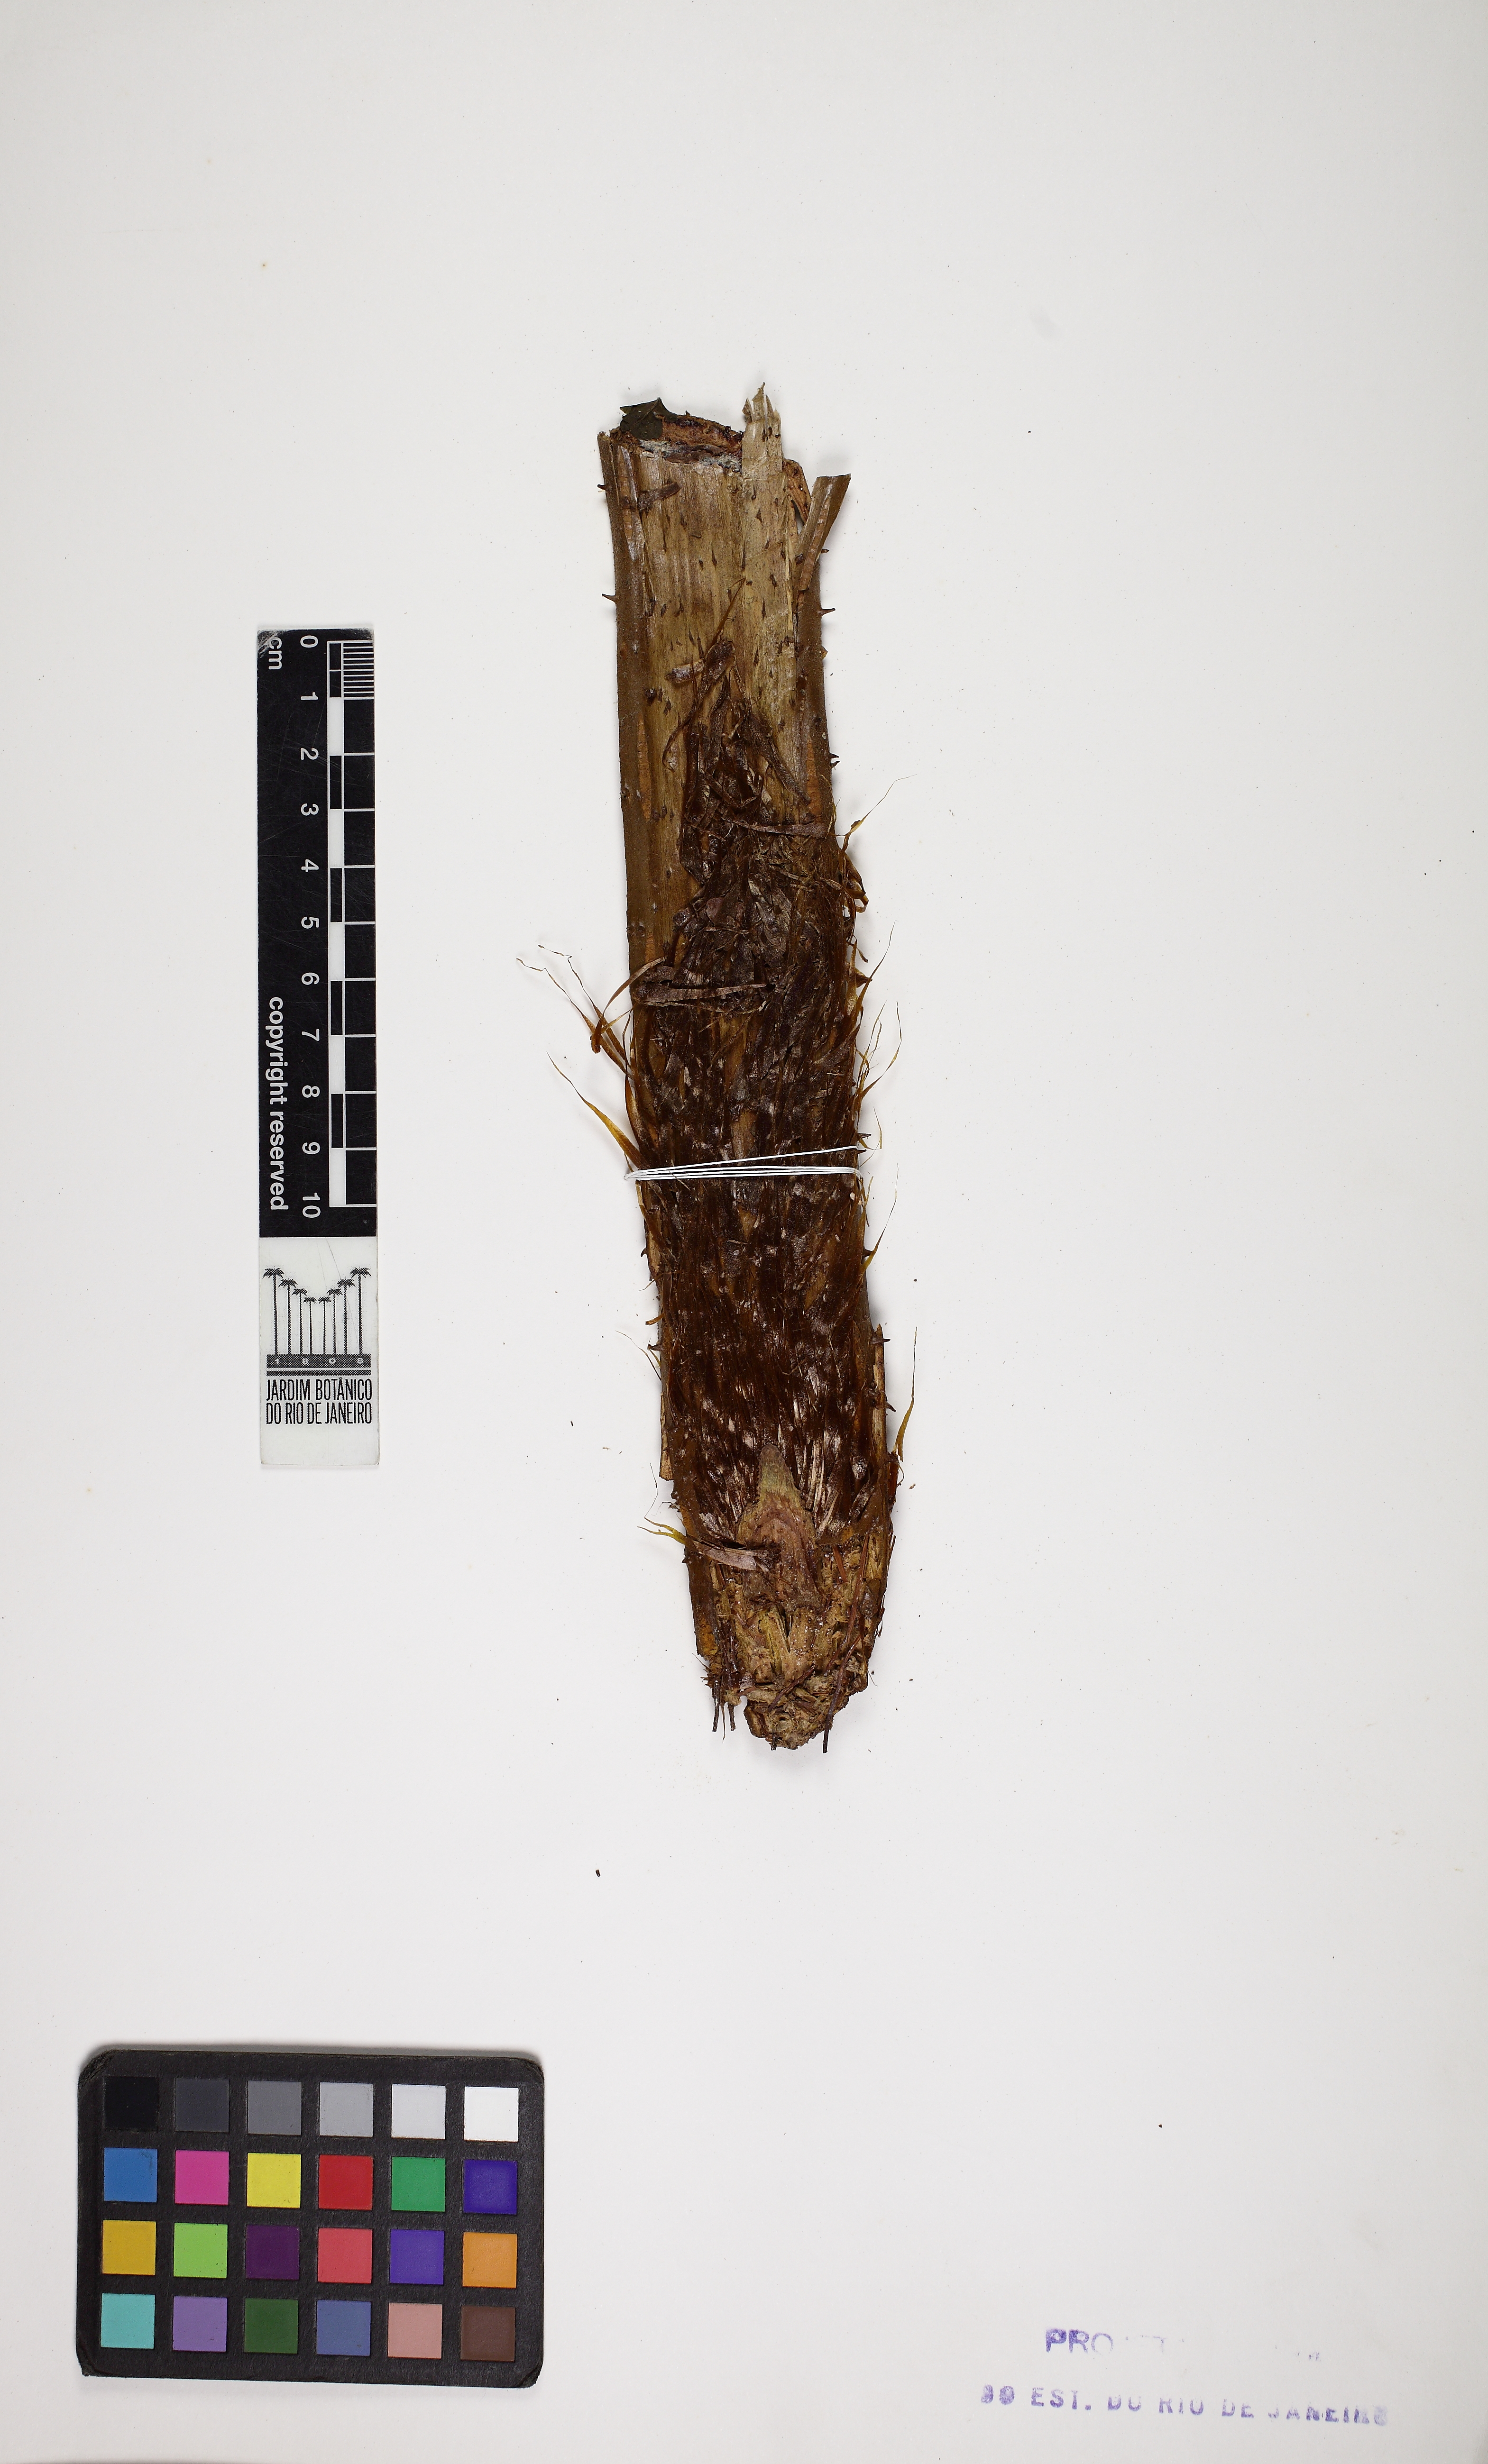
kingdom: Plantae
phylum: Tracheophyta
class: Polypodiopsida
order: Cyatheales
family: Cyatheaceae
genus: Cyathea
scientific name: Cyathea phalerata
